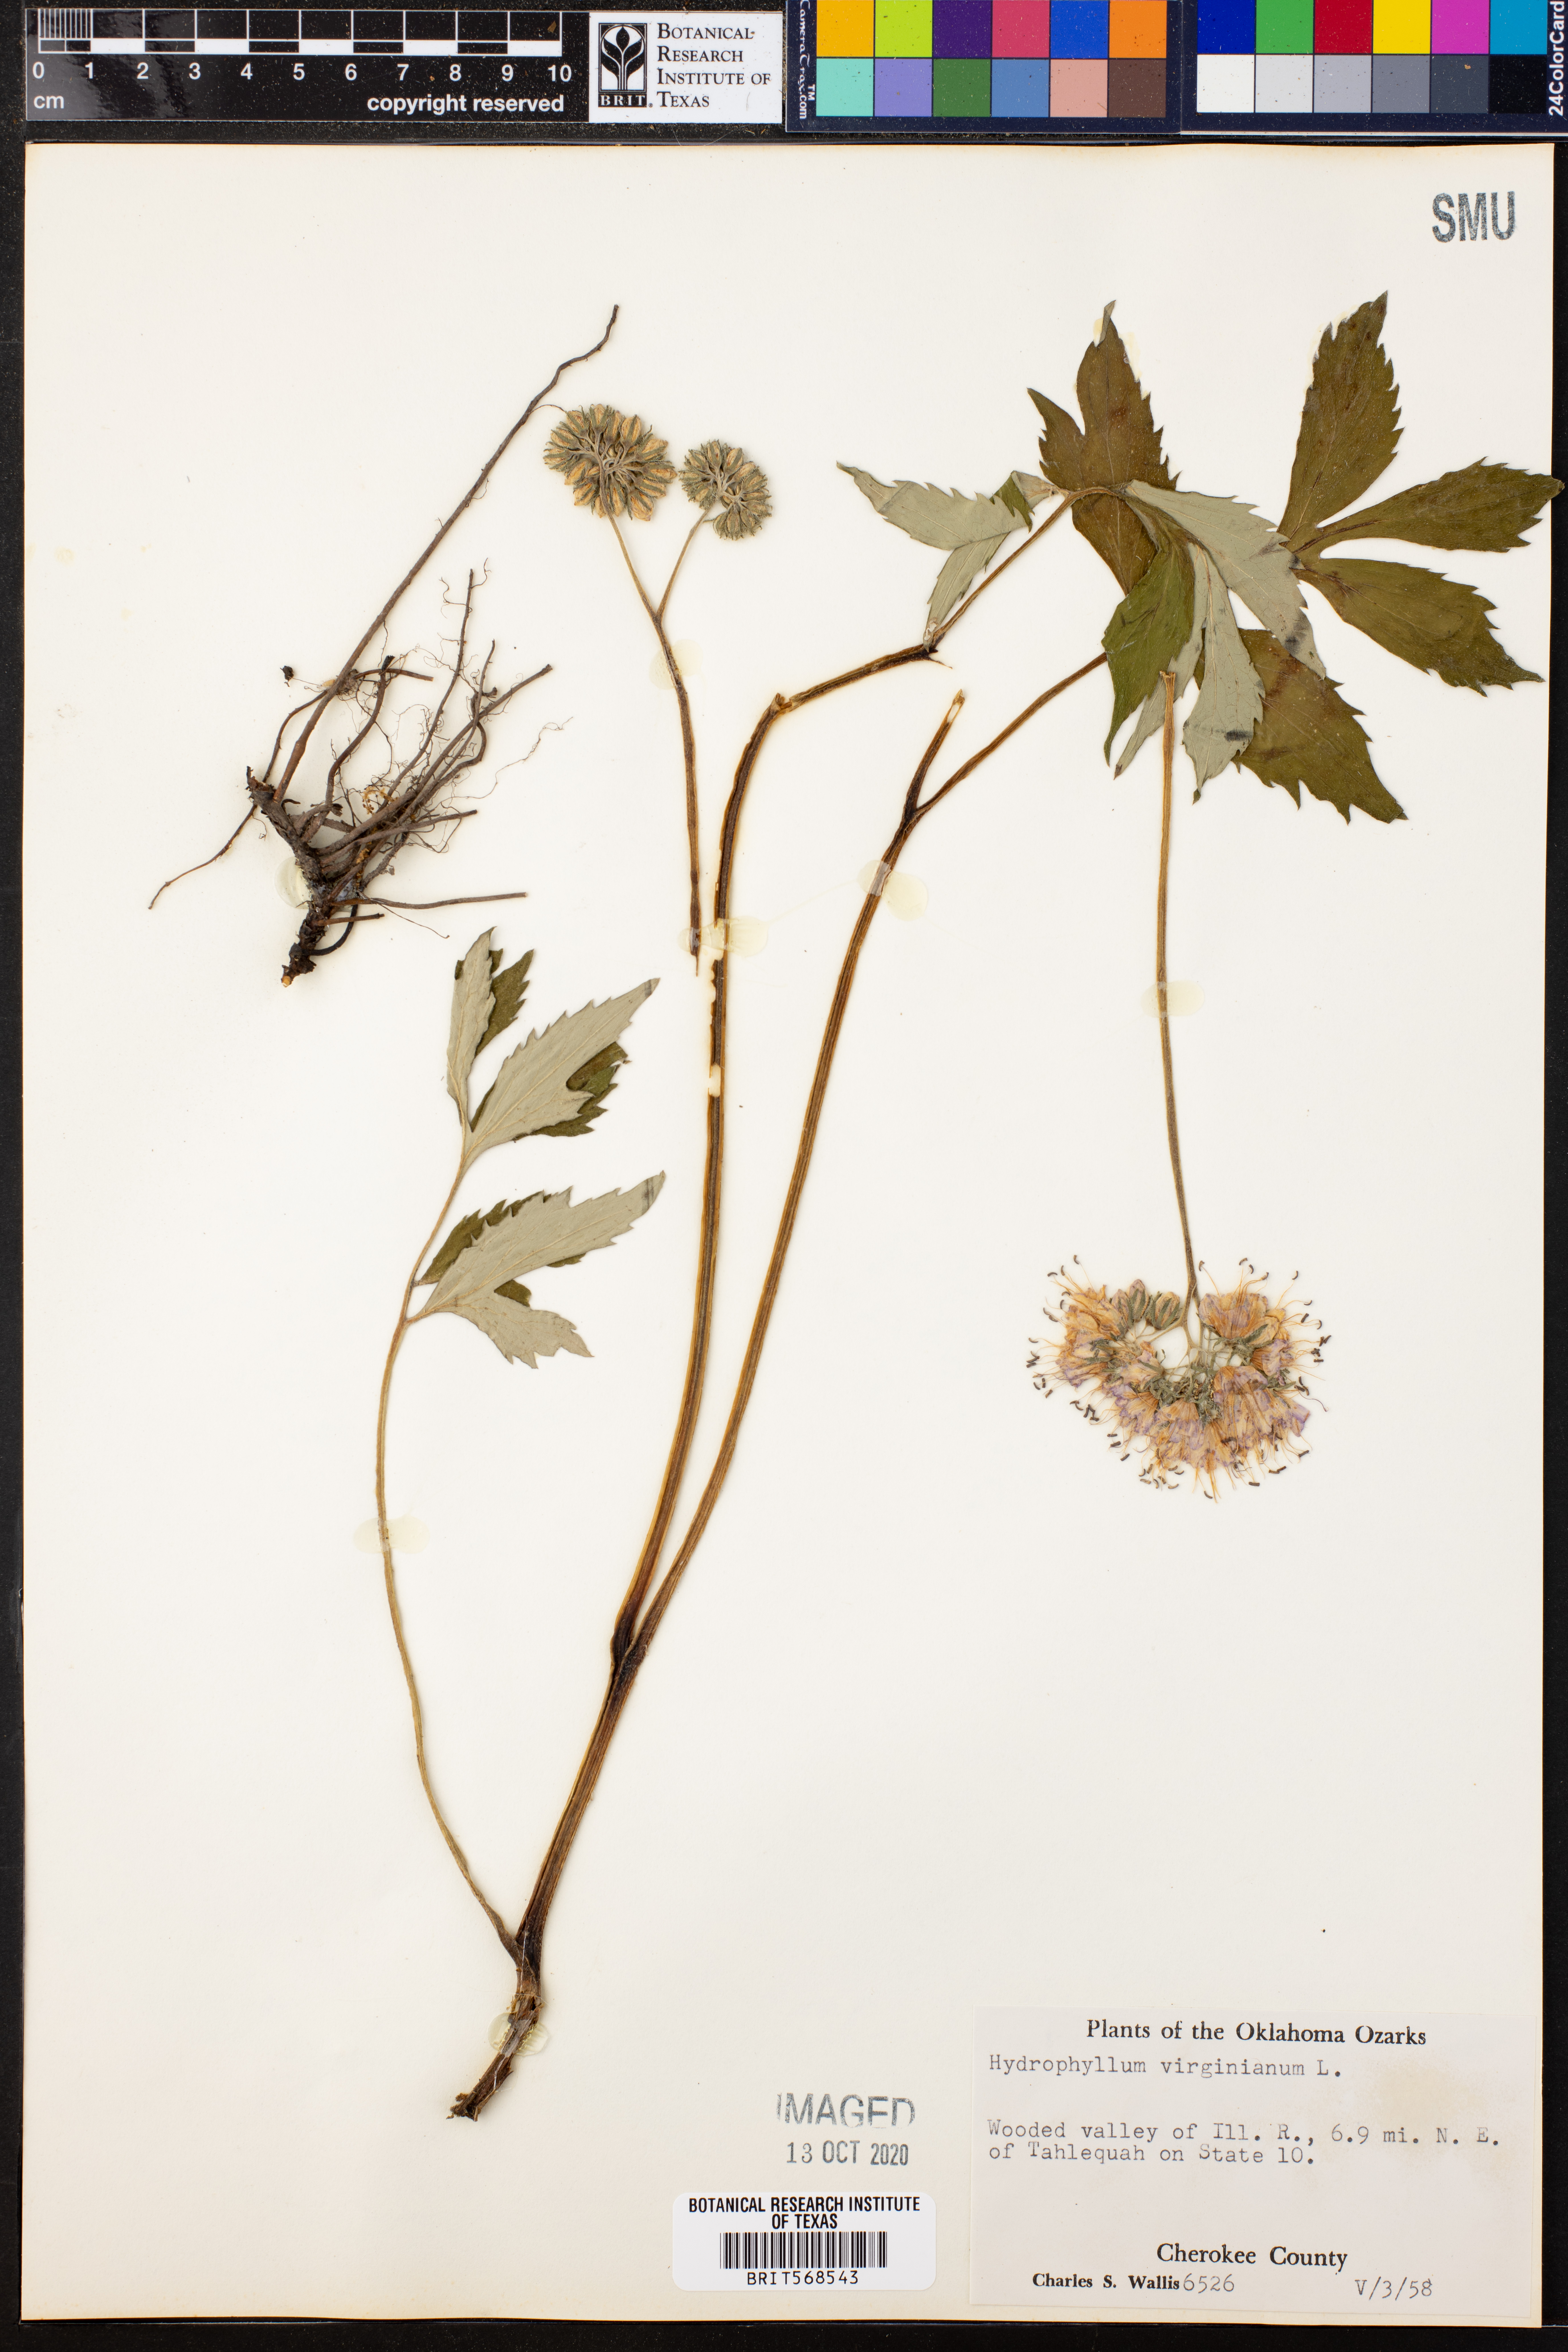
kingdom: Plantae
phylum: Tracheophyta
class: Magnoliopsida
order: Boraginales
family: Hydrophyllaceae
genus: Hydrophyllum
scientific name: Hydrophyllum virginianum
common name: Virginia waterleaf
